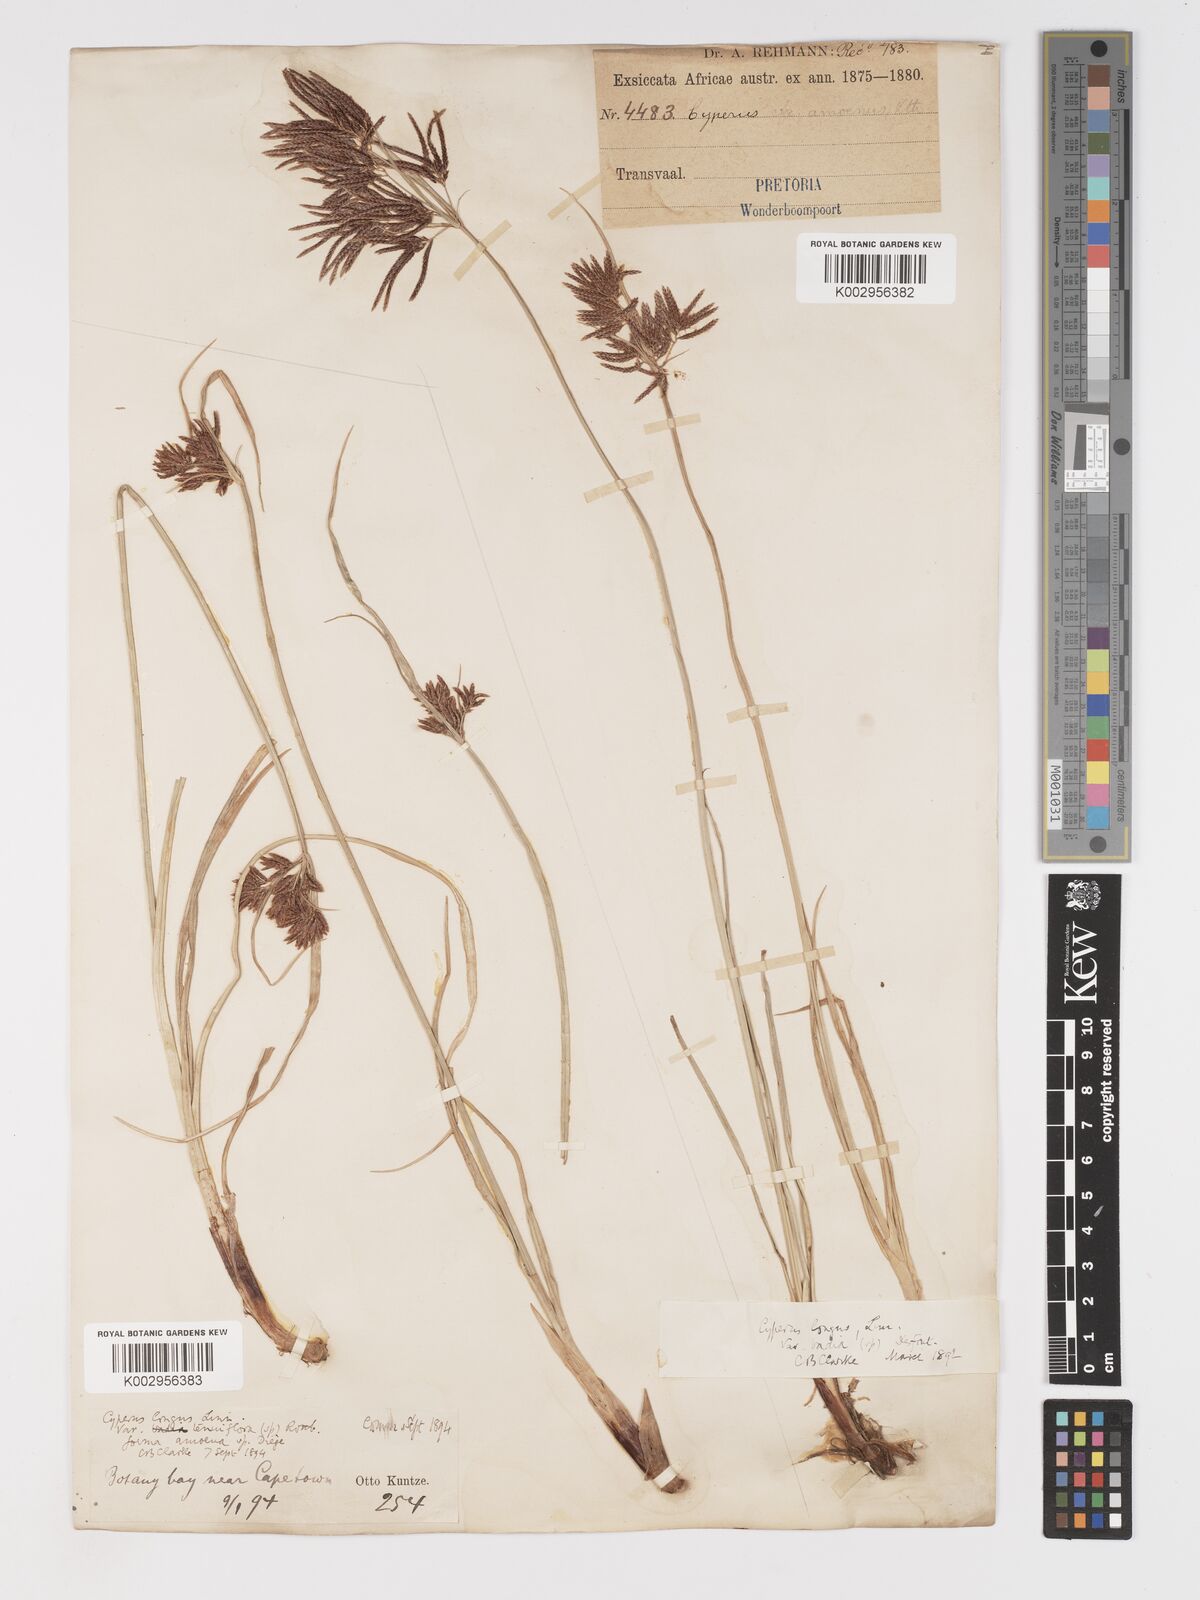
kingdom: Plantae
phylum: Tracheophyta
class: Liliopsida
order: Poales
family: Cyperaceae
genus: Cyperus
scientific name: Cyperus longus
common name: Galingale
